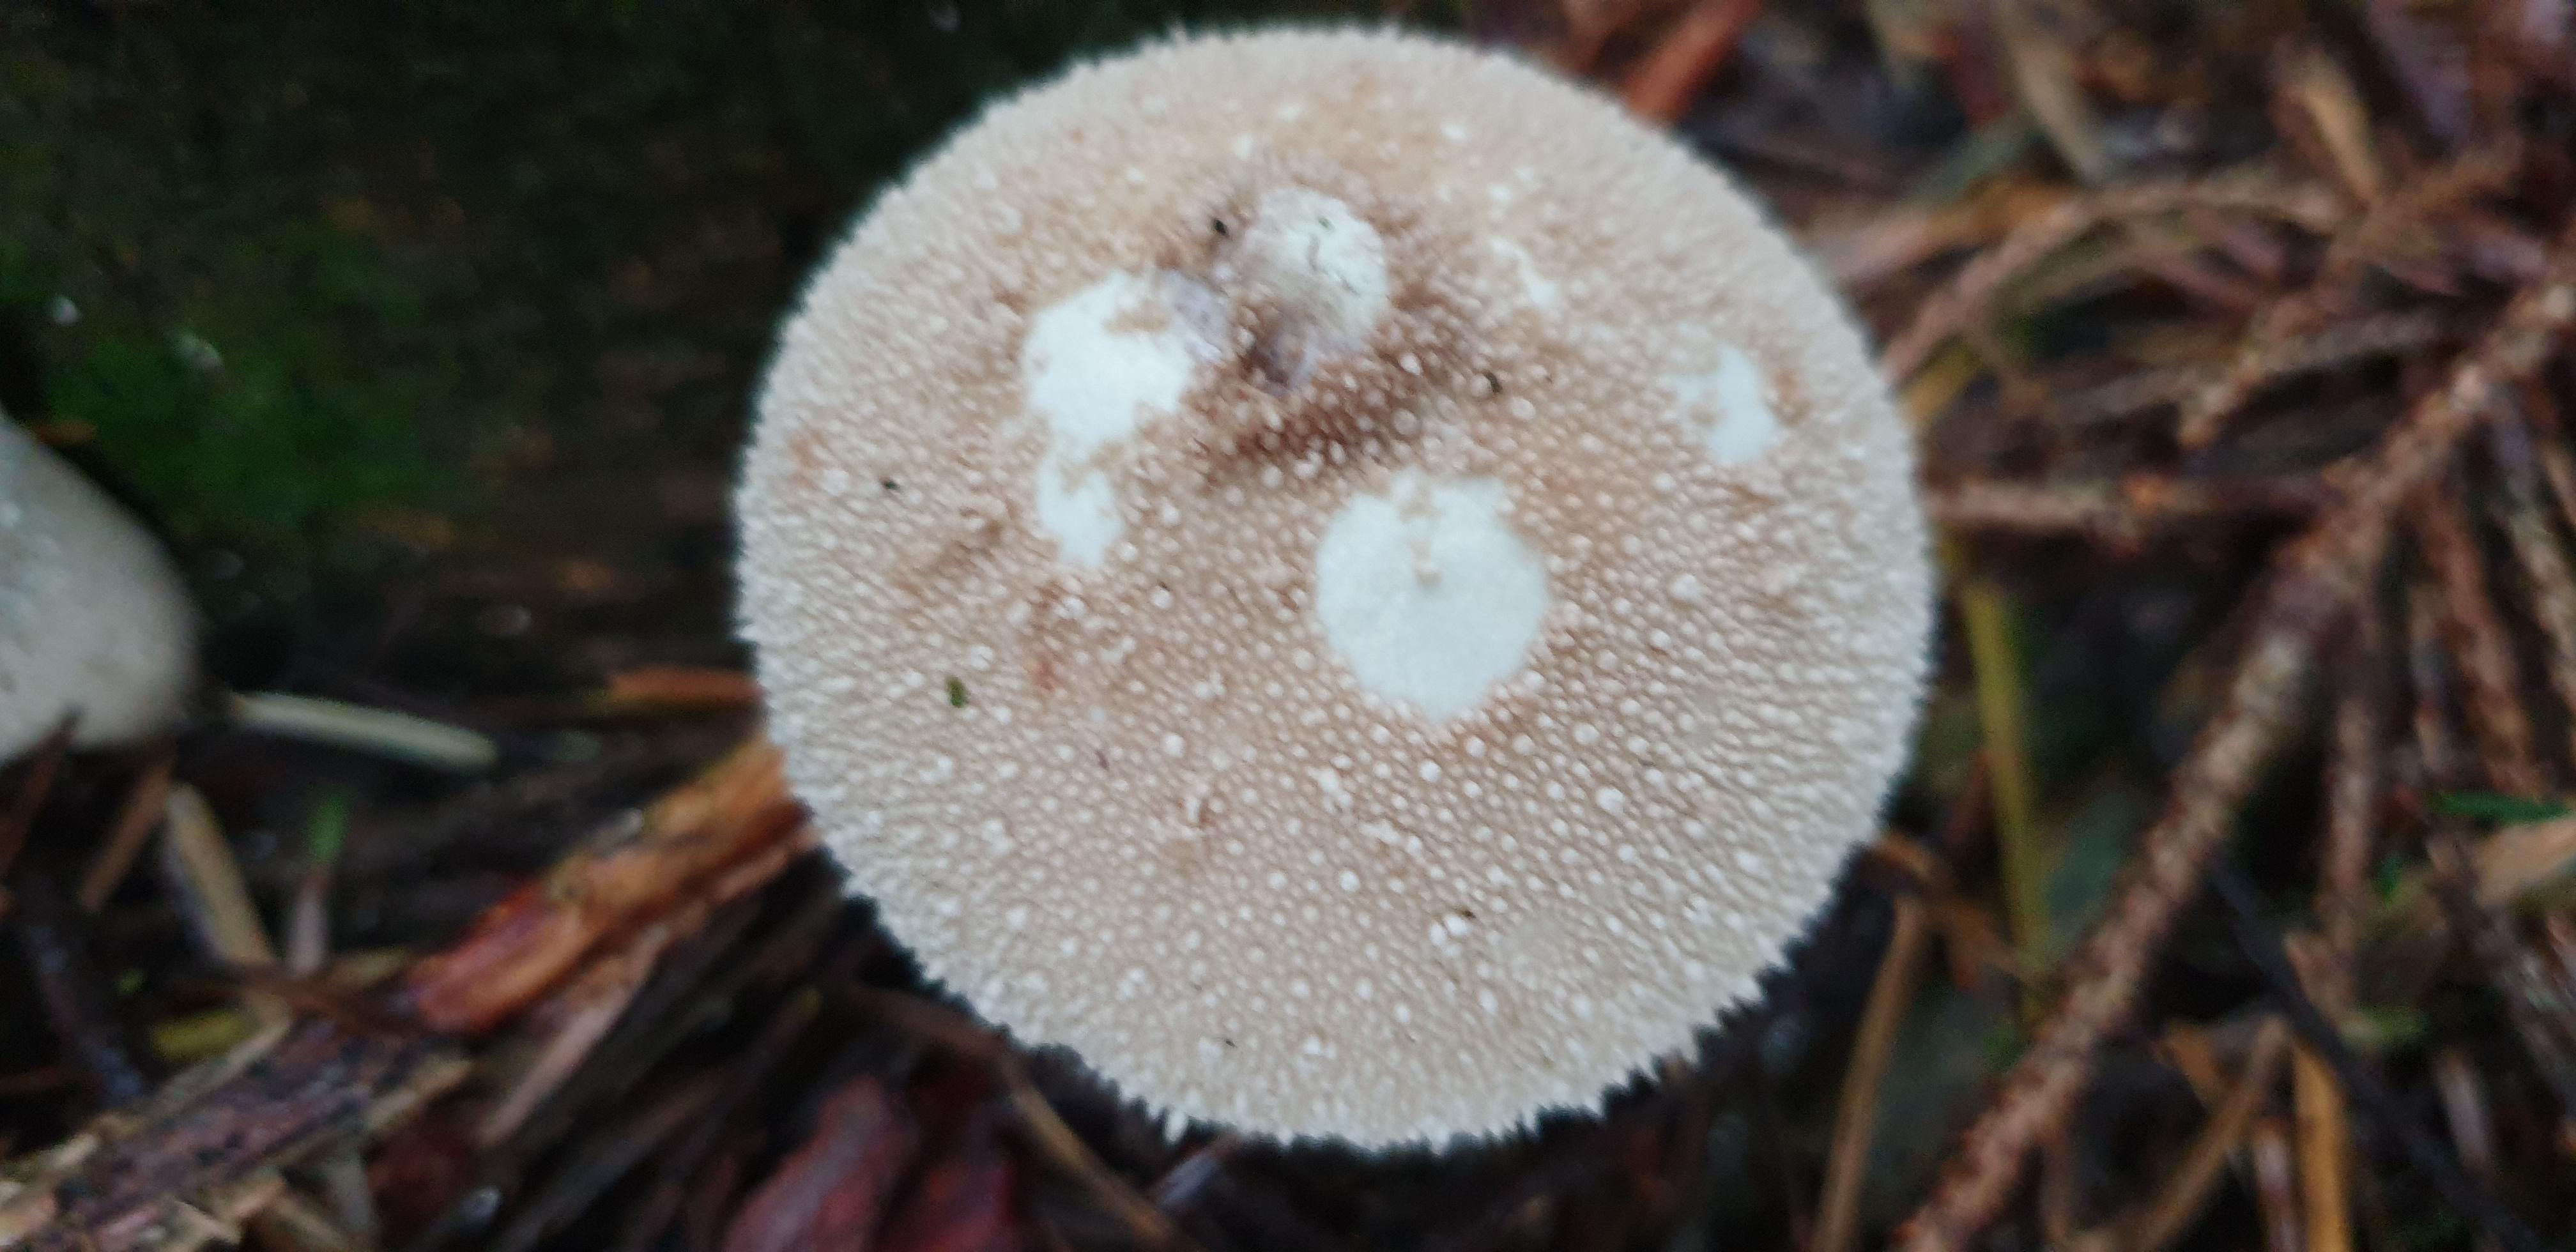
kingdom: Fungi
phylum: Basidiomycota
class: Agaricomycetes
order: Agaricales
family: Lycoperdaceae
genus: Lycoperdon
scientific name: Lycoperdon perlatum
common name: krystal-støvbold
